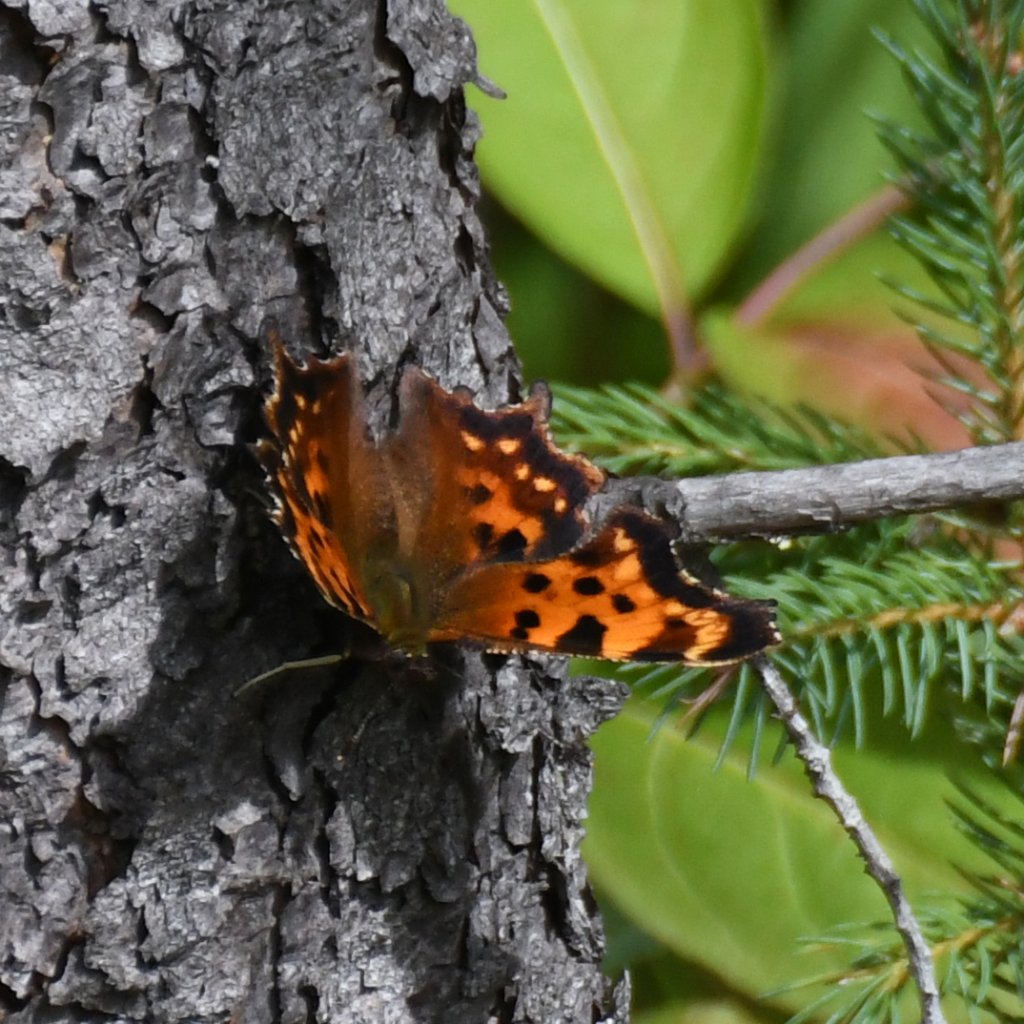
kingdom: Animalia
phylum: Arthropoda
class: Insecta
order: Lepidoptera
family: Nymphalidae
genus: Polygonia
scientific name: Polygonia faunus
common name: Green Comma
